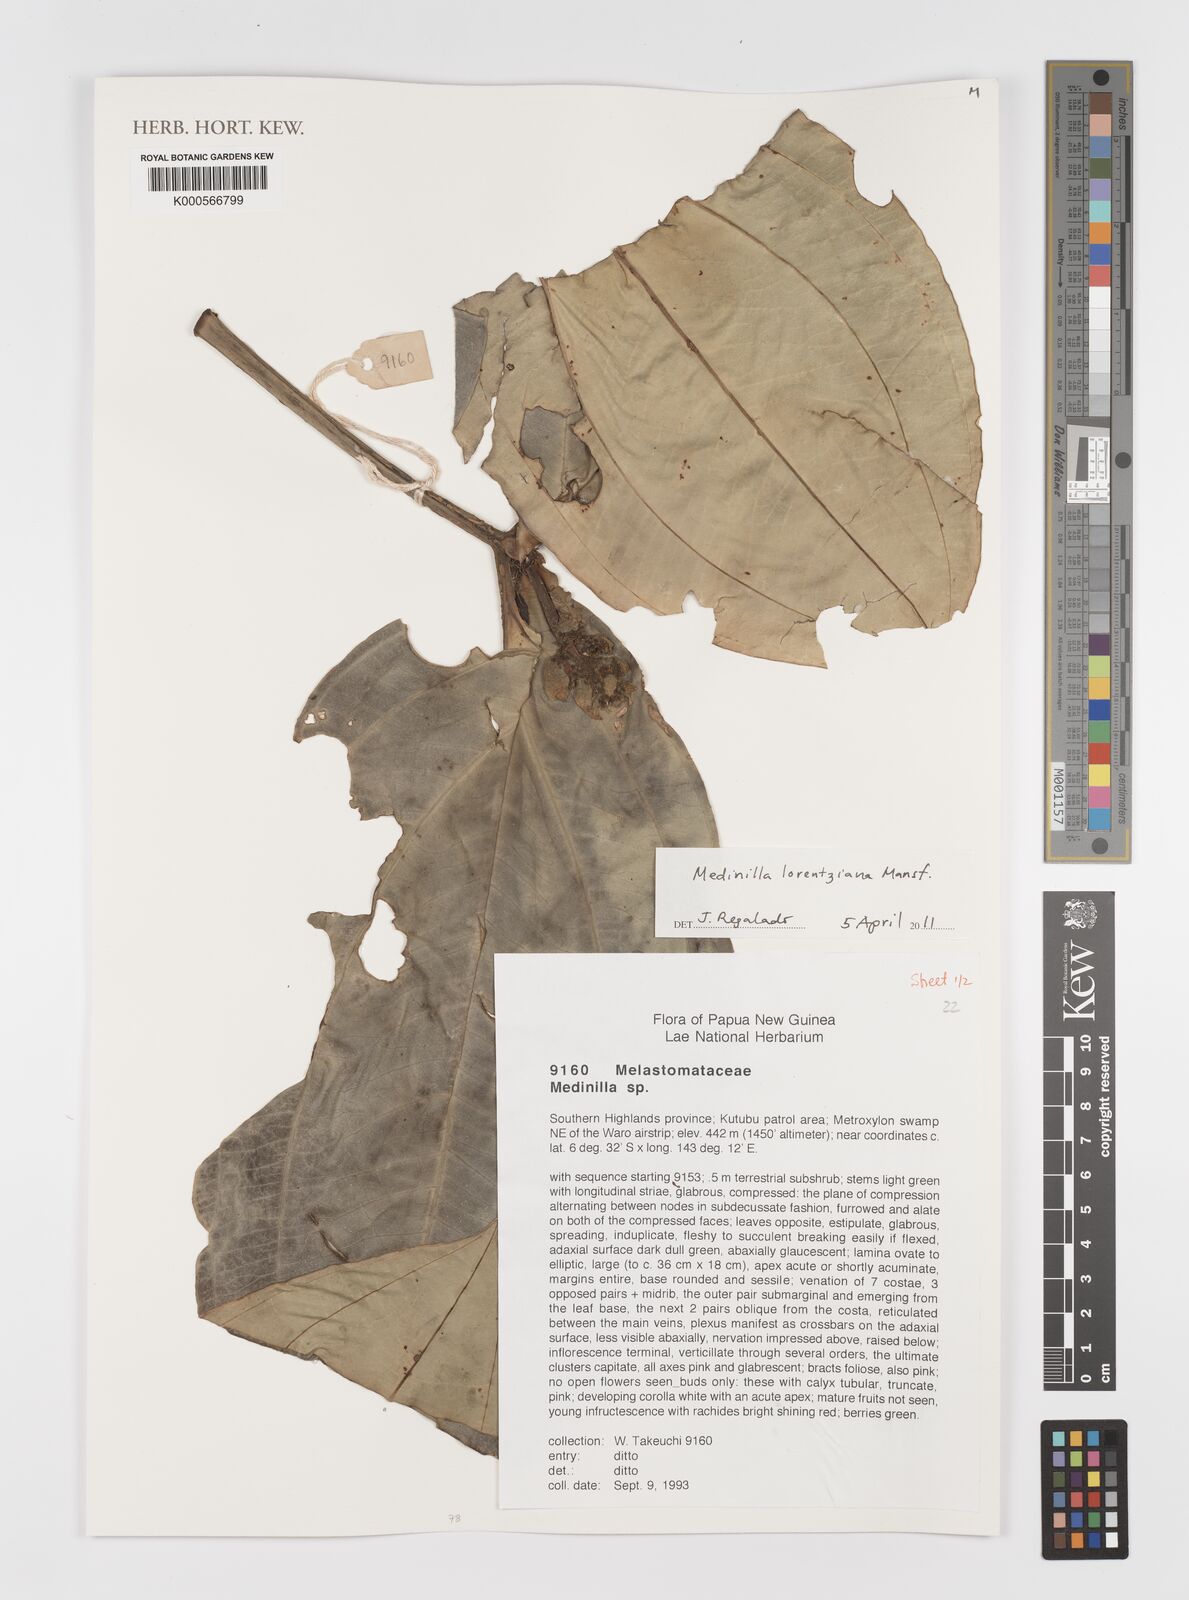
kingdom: Plantae
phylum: Tracheophyta
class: Magnoliopsida
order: Myrtales
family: Melastomataceae
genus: Medinilla
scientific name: Medinilla lorentziana
